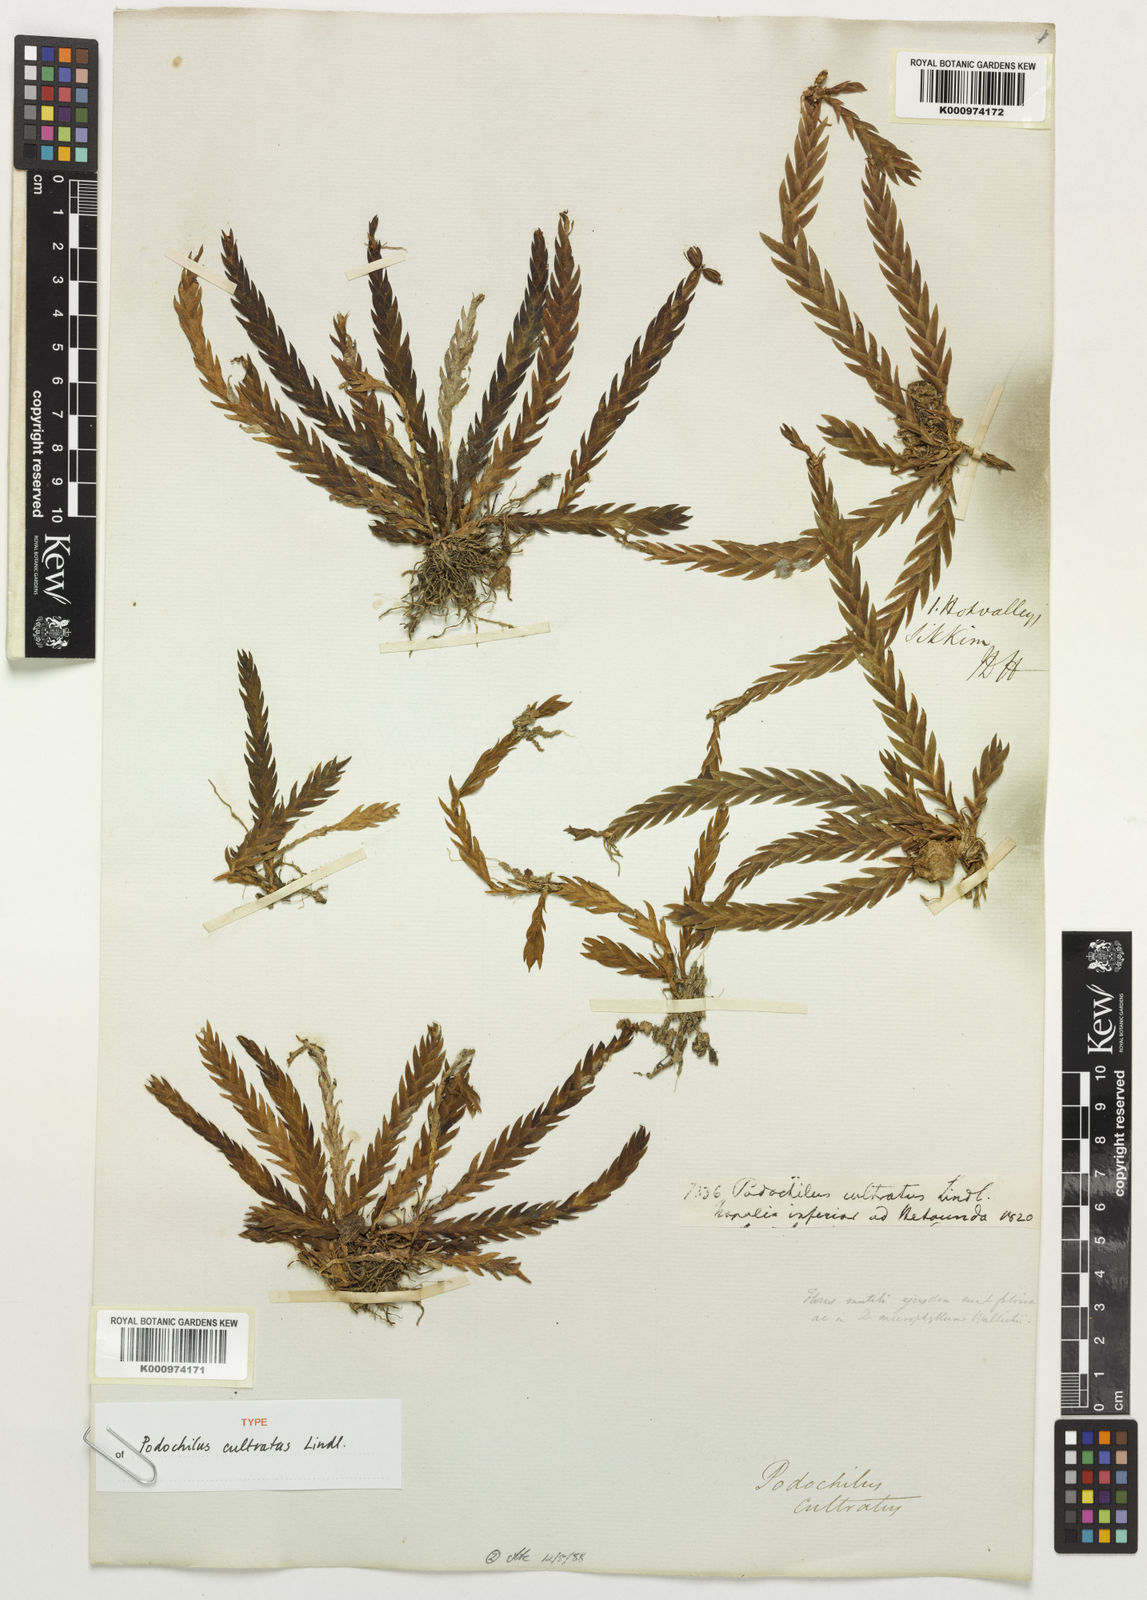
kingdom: Plantae
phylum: Tracheophyta
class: Liliopsida
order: Asparagales
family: Orchidaceae
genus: Podochilus
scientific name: Podochilus cultratus
